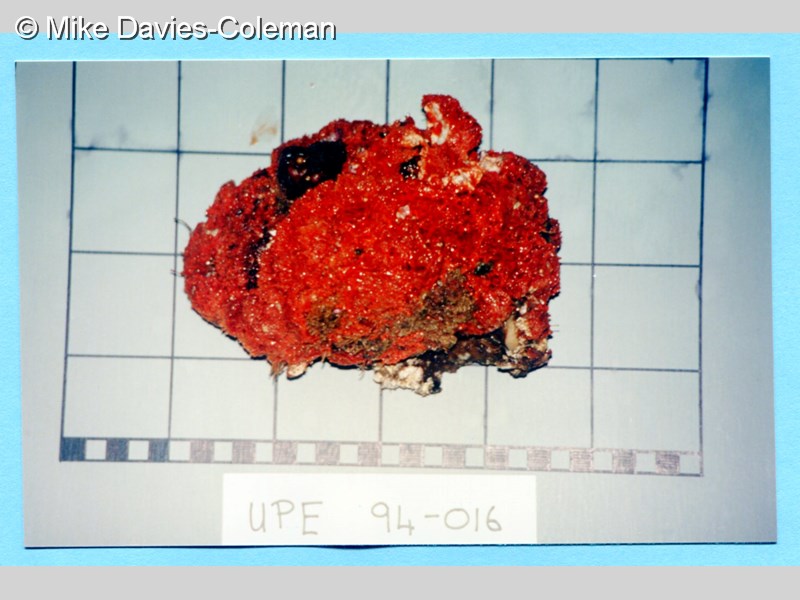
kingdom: Animalia
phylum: Porifera
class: Demospongiae
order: Poecilosclerida
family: Chondropsidae
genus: Strongylacidon
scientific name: Strongylacidon
